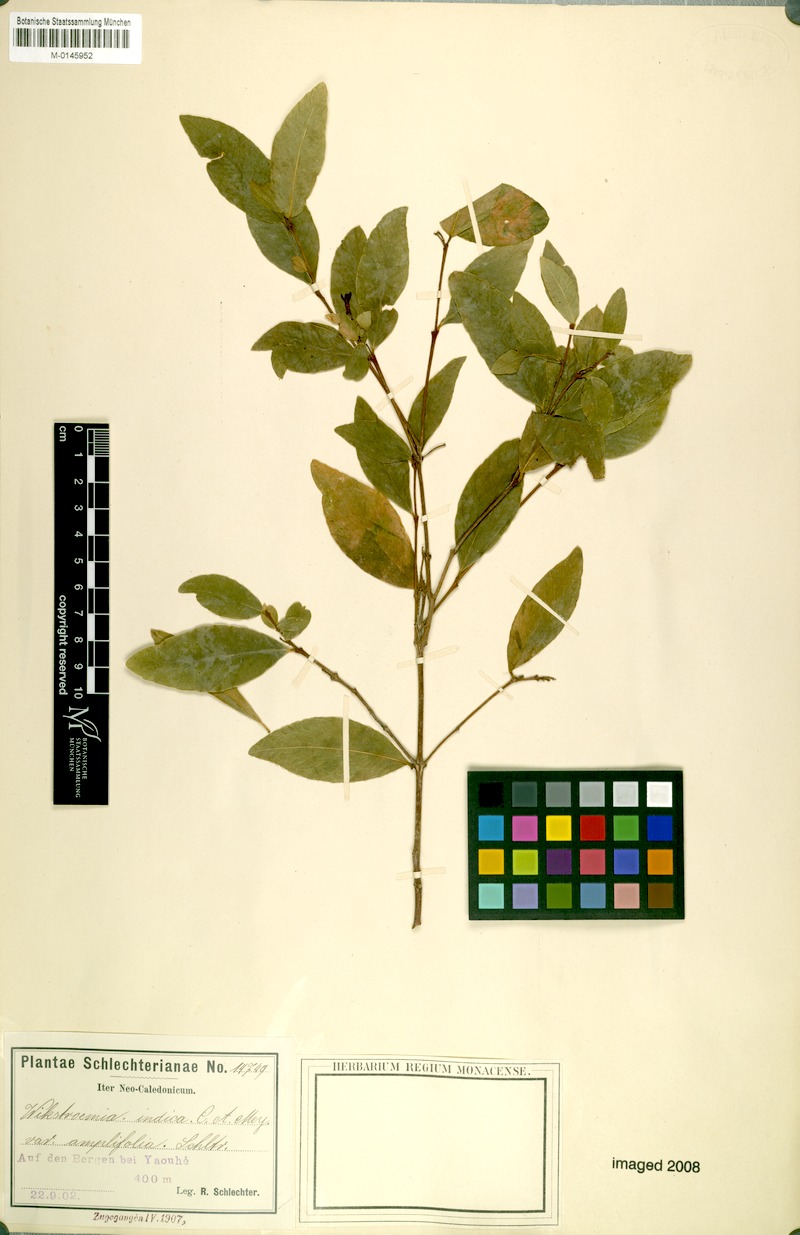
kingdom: Plantae
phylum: Tracheophyta
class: Magnoliopsida
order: Malvales
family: Thymelaeaceae
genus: Wikstroemia
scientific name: Wikstroemia indica
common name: Tiebush
